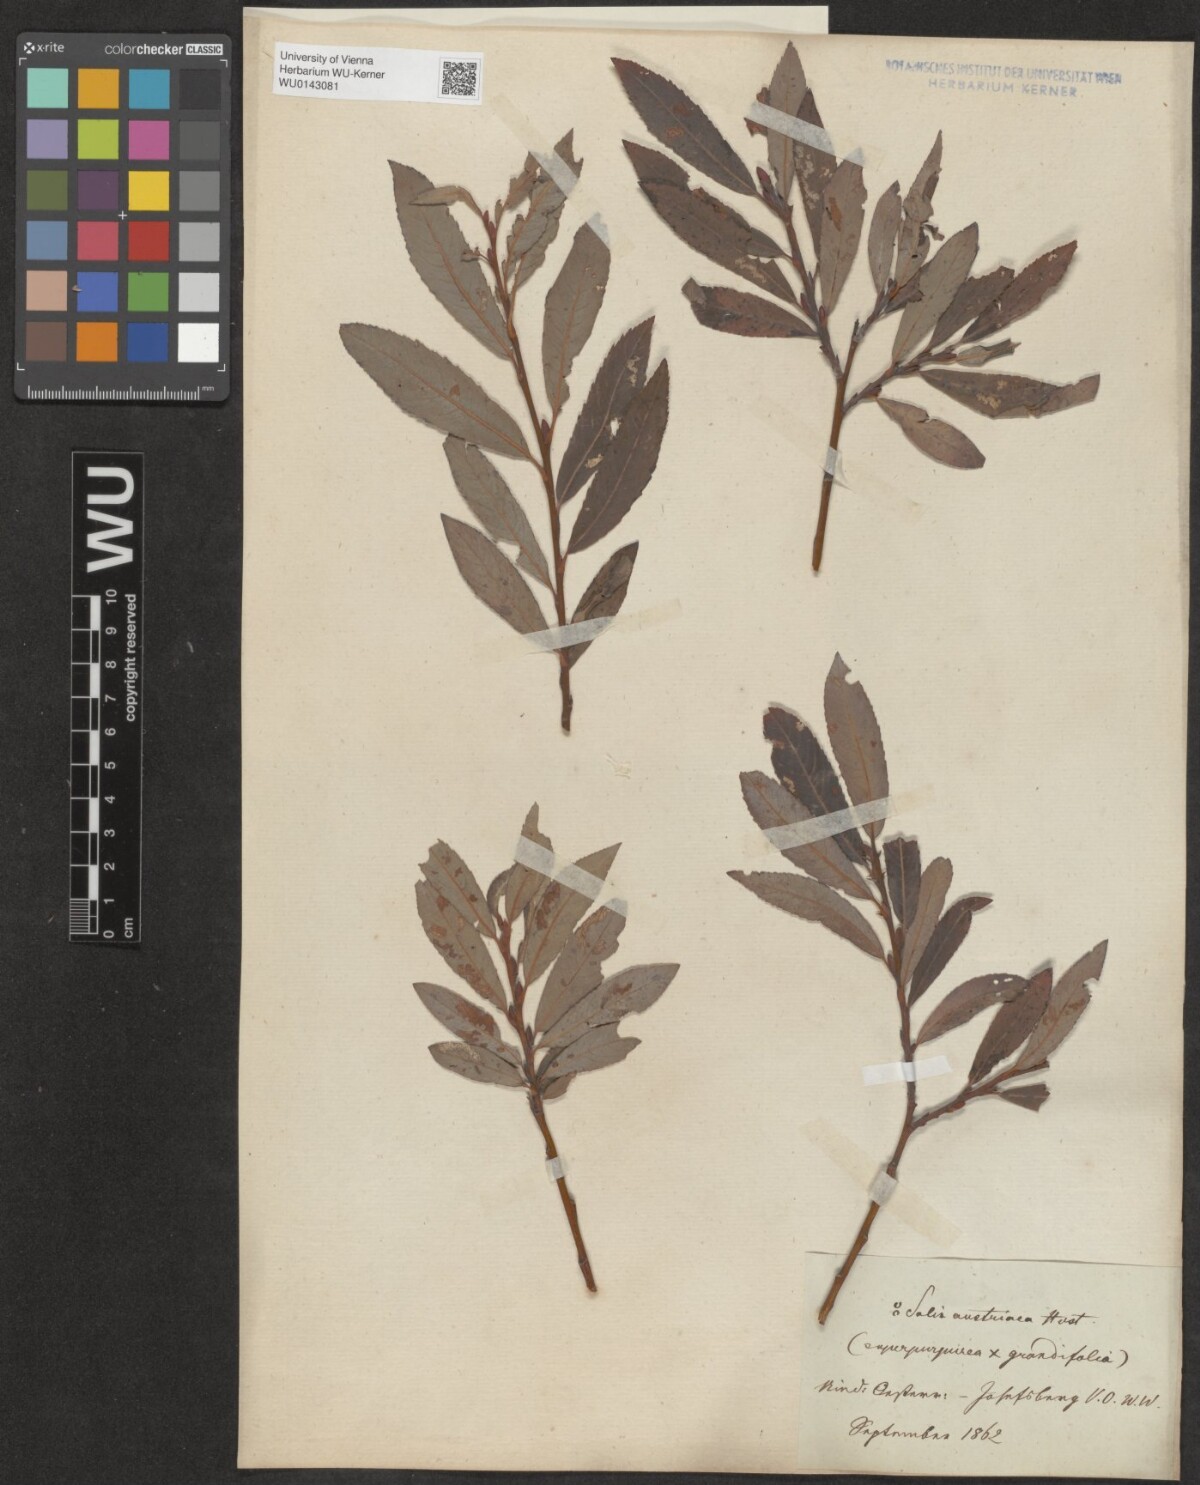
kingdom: Plantae
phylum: Tracheophyta
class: Magnoliopsida
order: Malpighiales
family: Salicaceae
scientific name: Salicaceae
